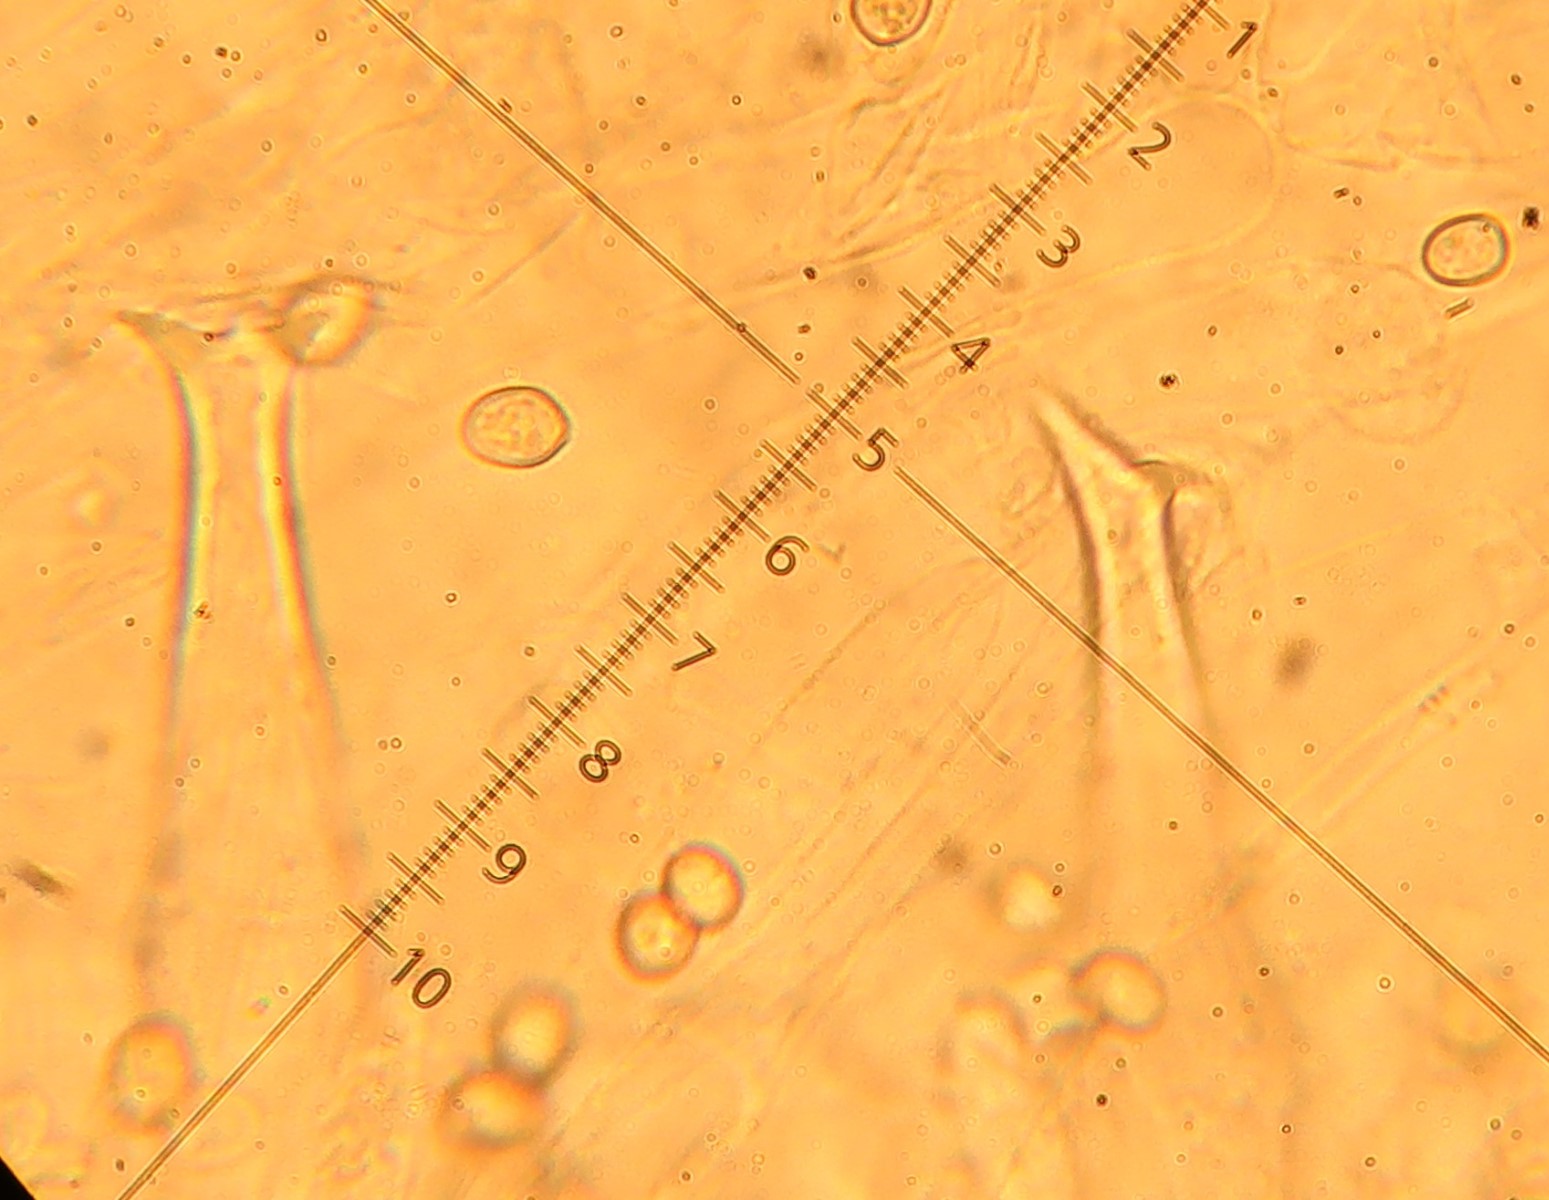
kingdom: Fungi
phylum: Basidiomycota
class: Agaricomycetes
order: Agaricales
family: Pluteaceae
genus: Pluteus
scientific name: Pluteus salicinus
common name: stiv skærmhat
